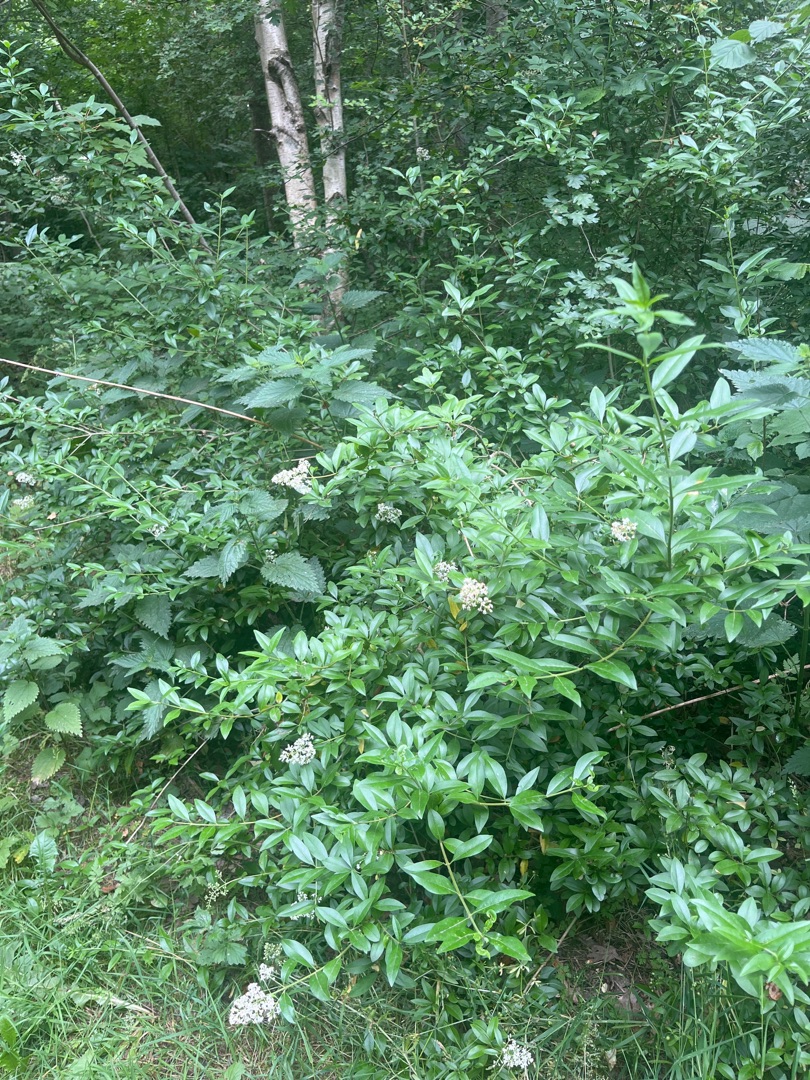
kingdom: Plantae
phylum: Tracheophyta
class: Magnoliopsida
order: Lamiales
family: Oleaceae
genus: Ligustrum
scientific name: Ligustrum vulgare
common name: Liguster
